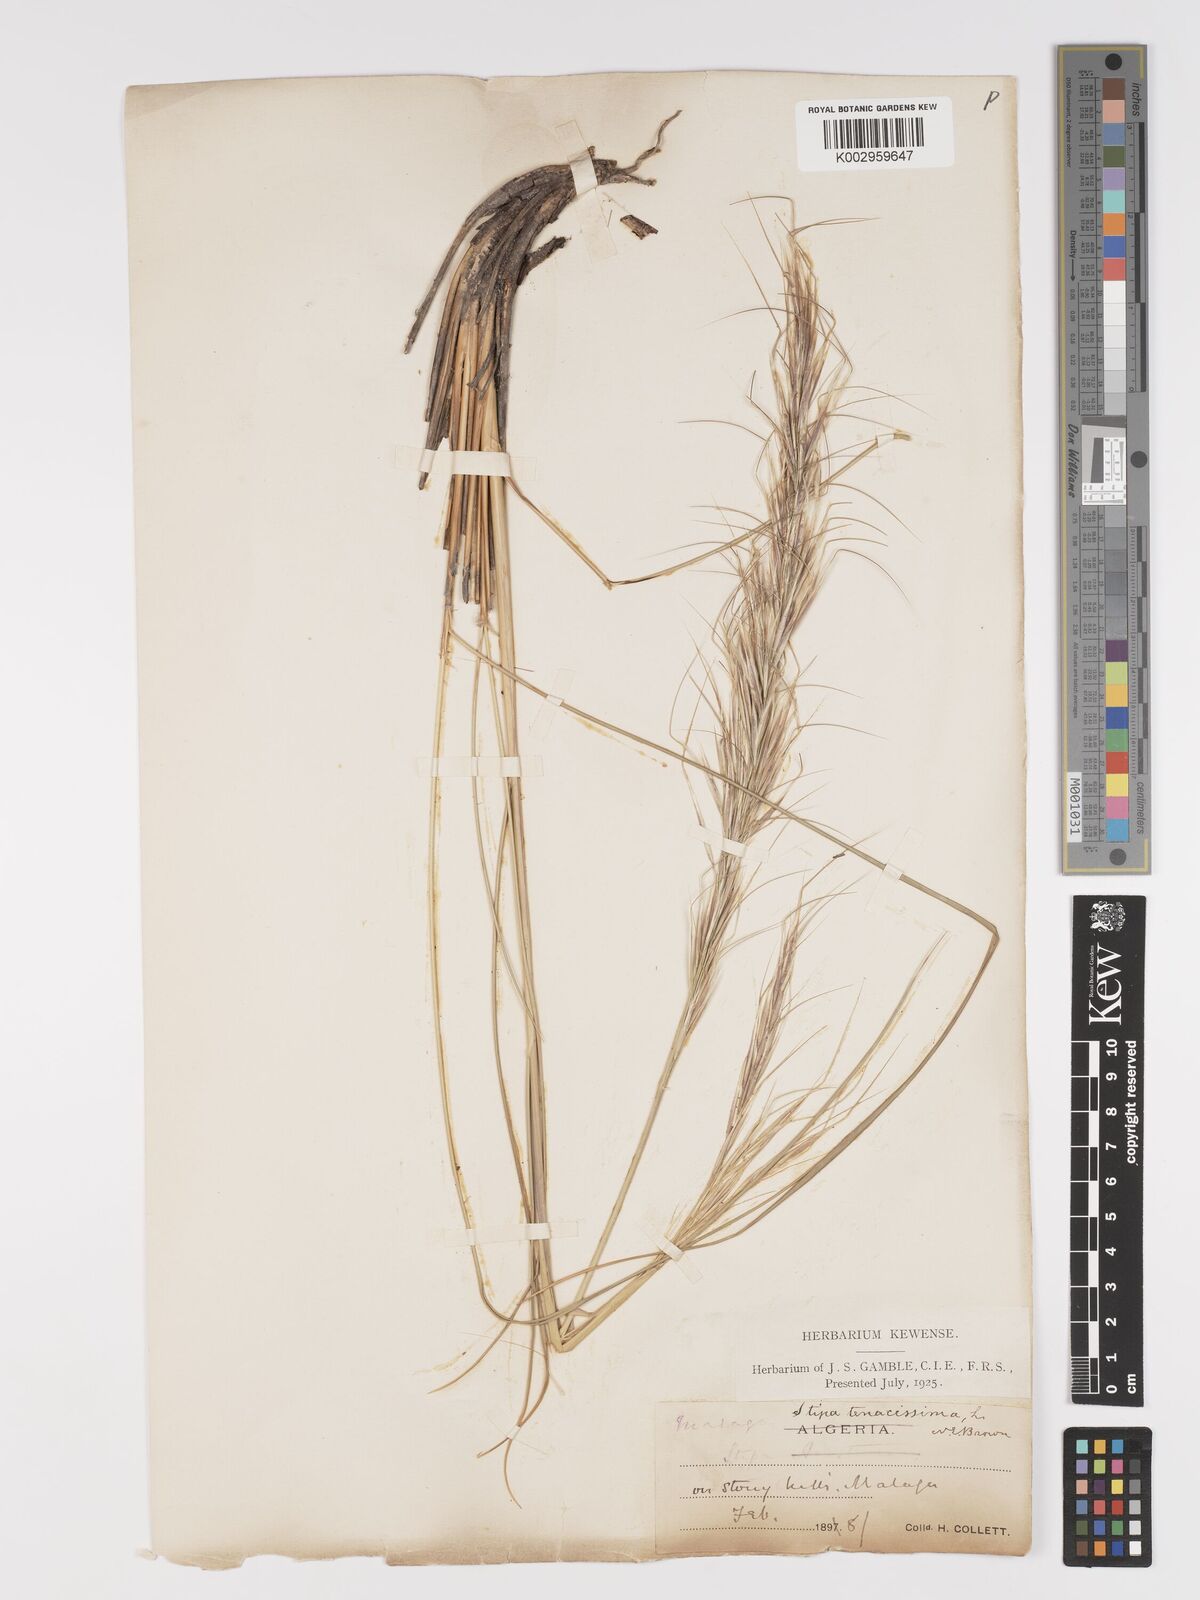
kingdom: Plantae
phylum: Tracheophyta
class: Liliopsida
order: Poales
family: Poaceae
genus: Macrochloa
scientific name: Macrochloa tenacissima
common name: Alfa grass
